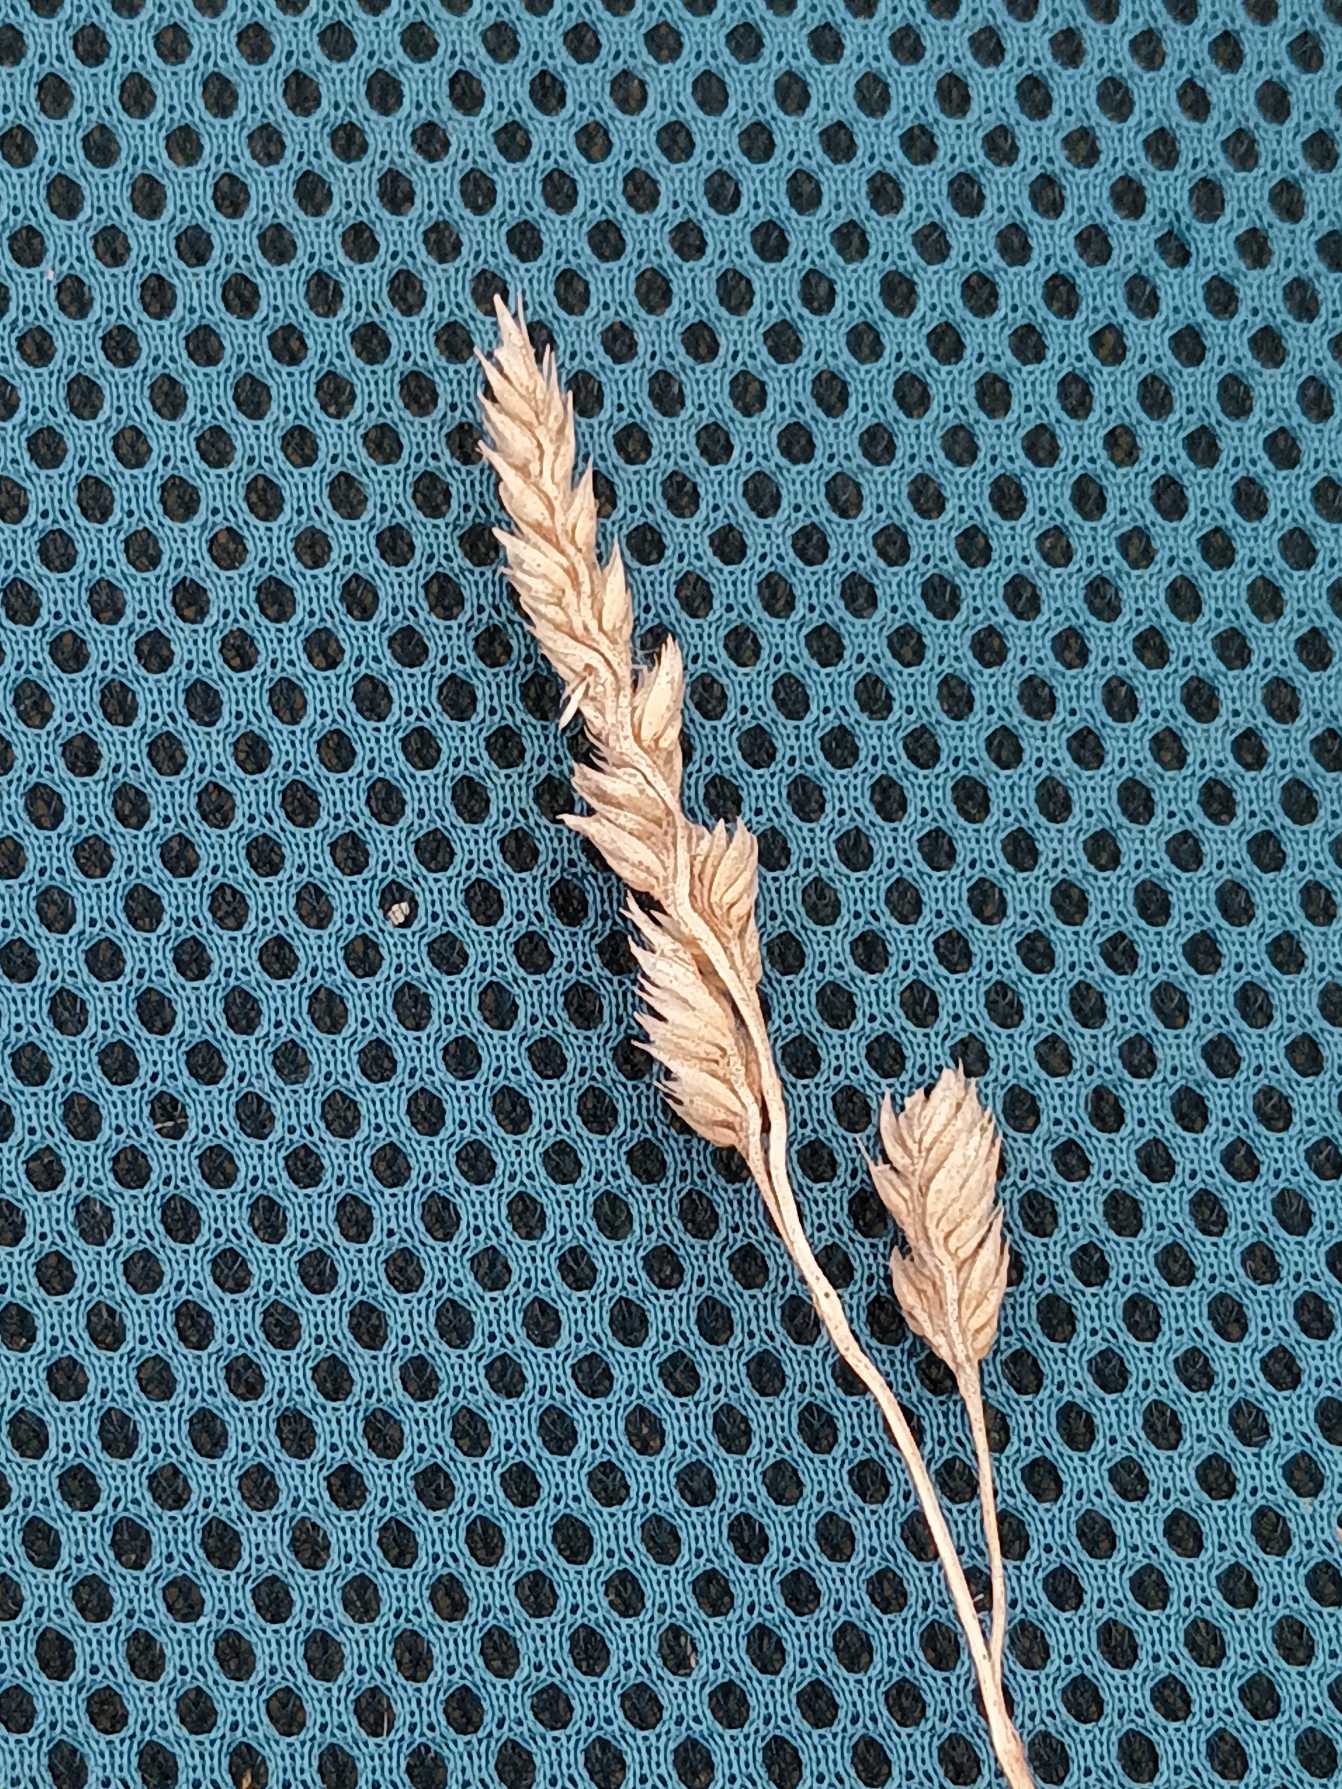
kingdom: Plantae
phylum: Tracheophyta
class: Liliopsida
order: Poales
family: Poaceae
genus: Dactylis
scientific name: Dactylis glomerata
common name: Almindelig hundegræs
